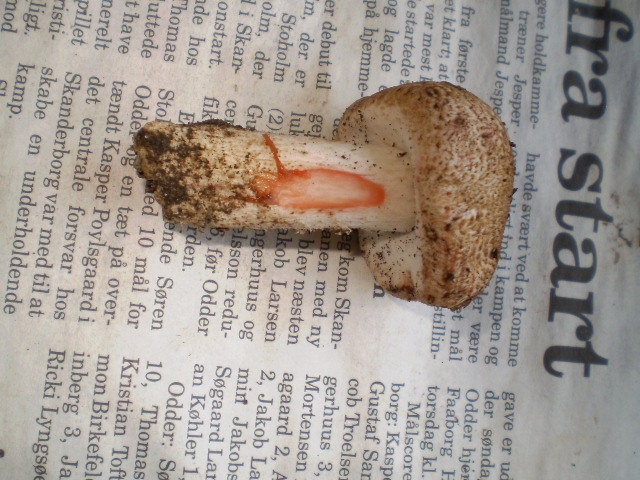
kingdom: Fungi
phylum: Basidiomycota
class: Agaricomycetes
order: Agaricales
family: Agaricaceae
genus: Agaricus
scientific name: Agaricus langei
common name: stor blod-champignon
